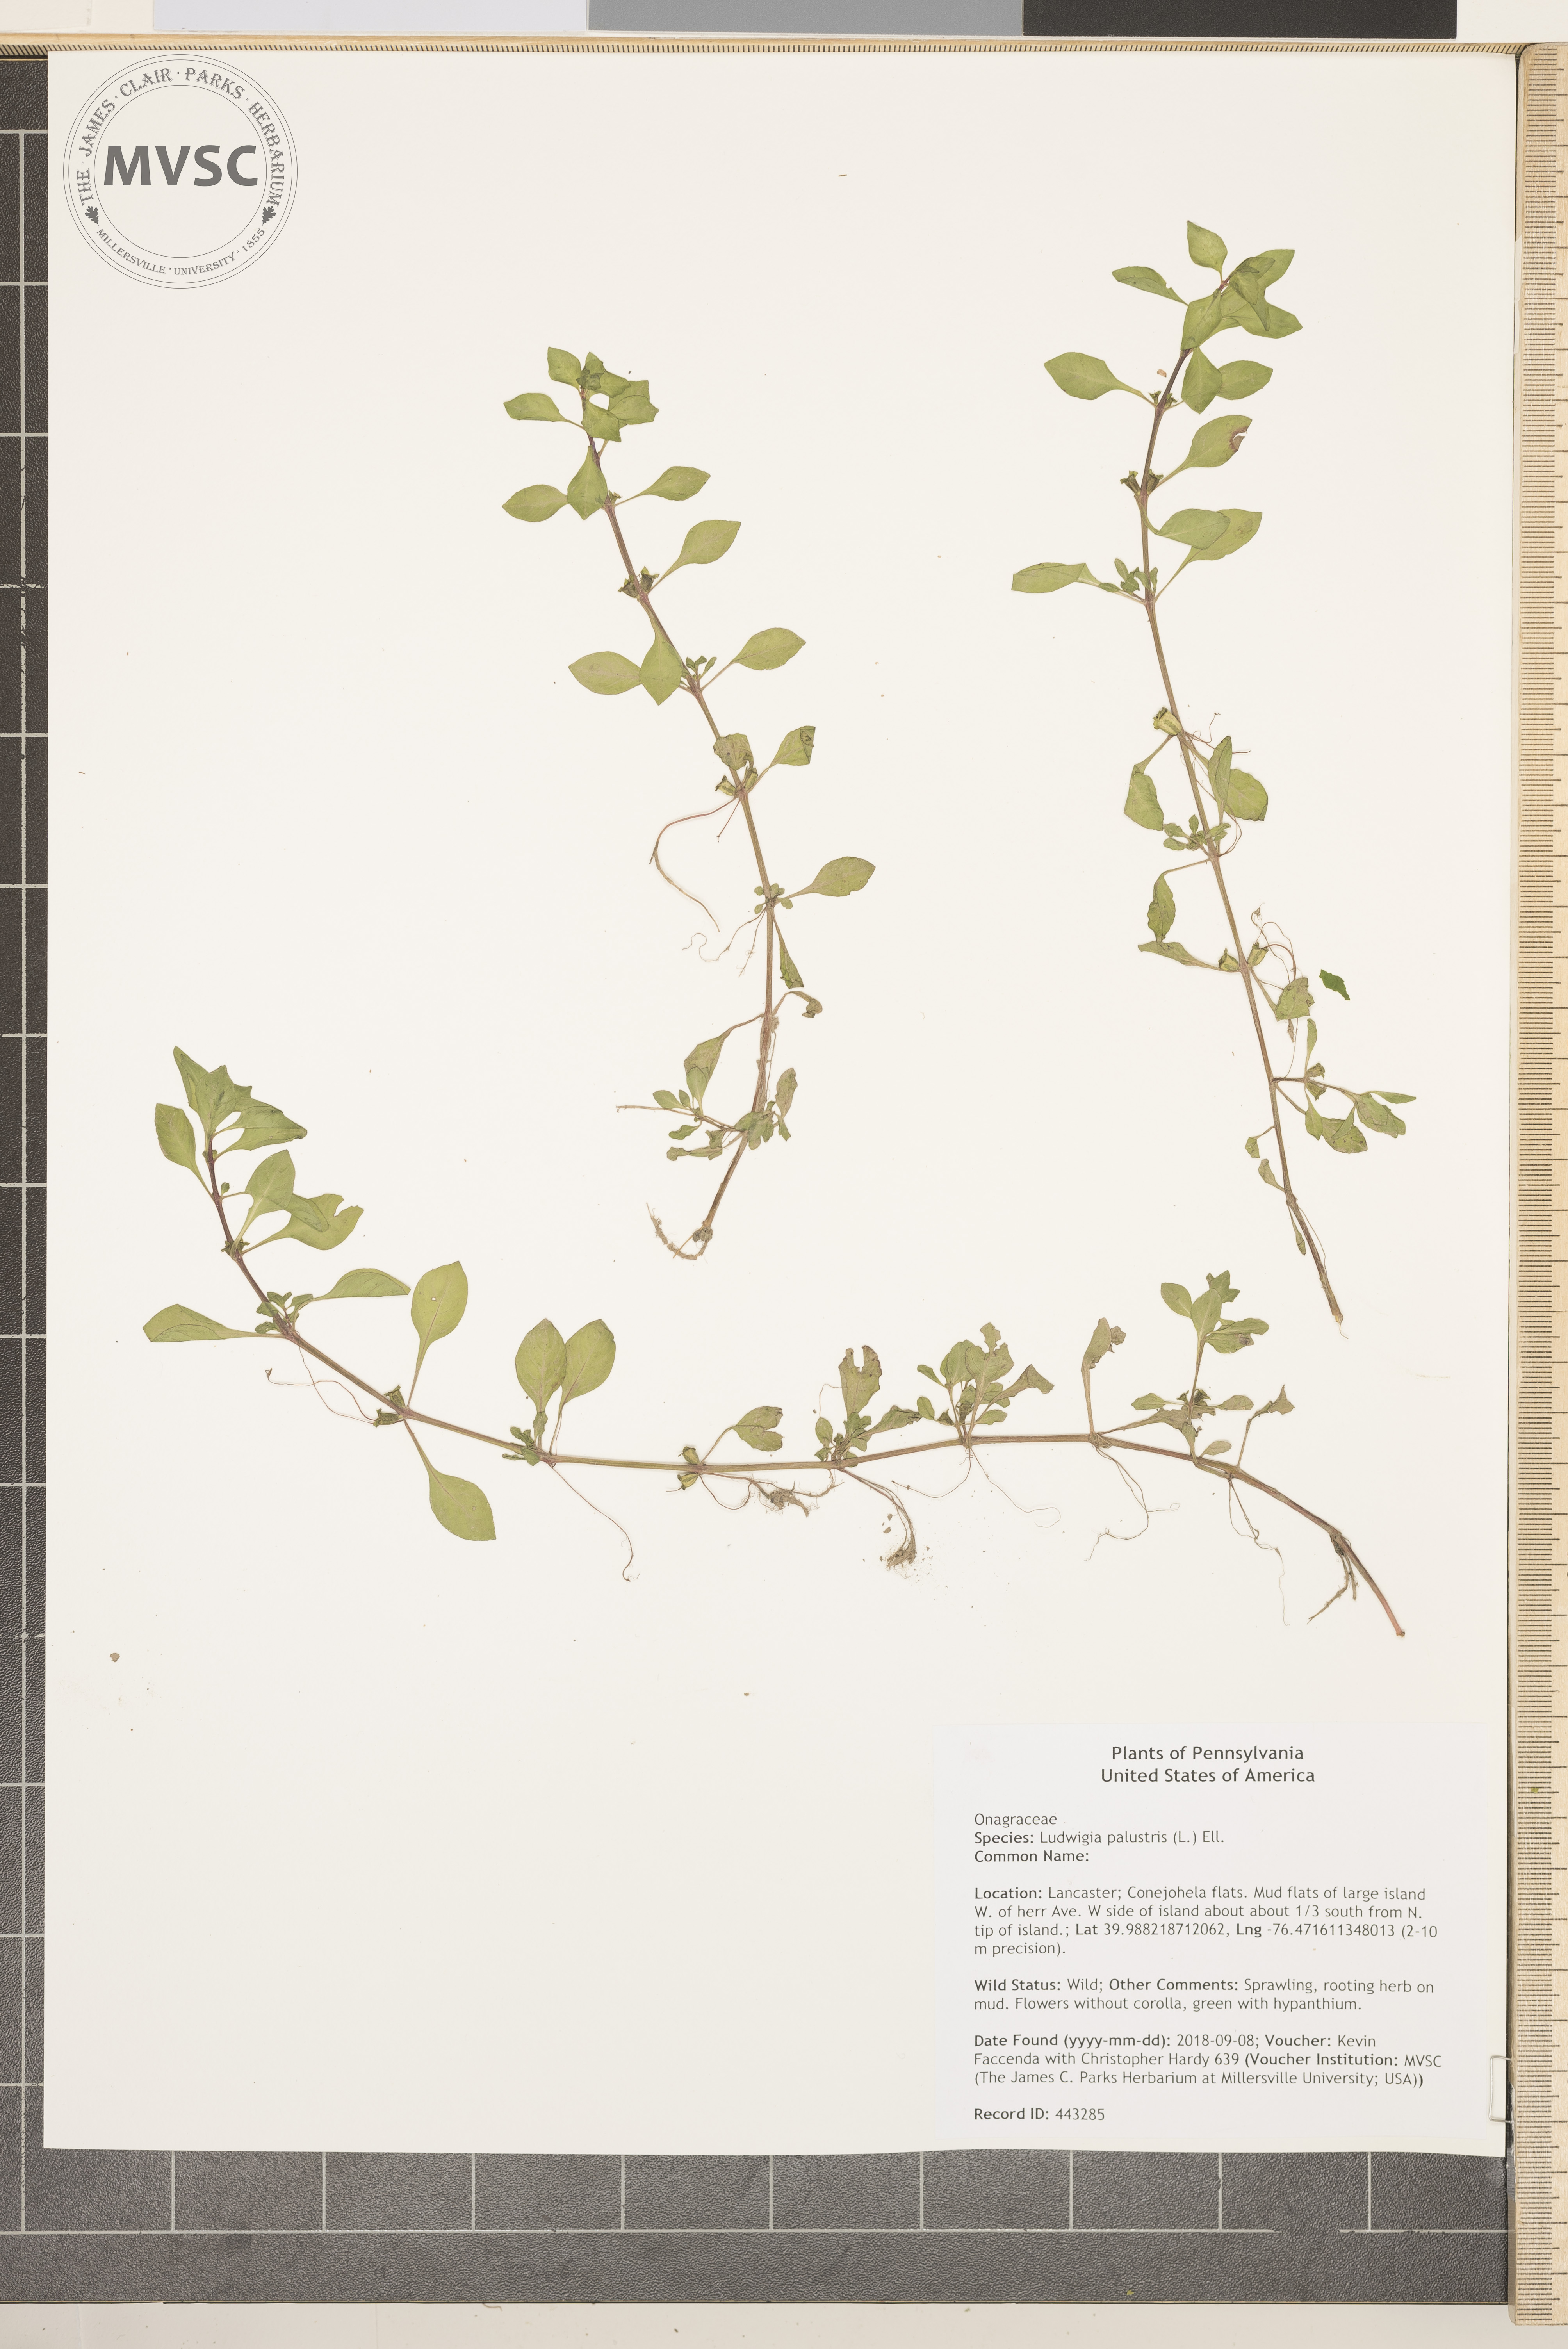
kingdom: Plantae
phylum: Tracheophyta
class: Magnoliopsida
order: Myrtales
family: Onagraceae
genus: Ludwigia
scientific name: Ludwigia palustris
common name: Hampshire-purslane
